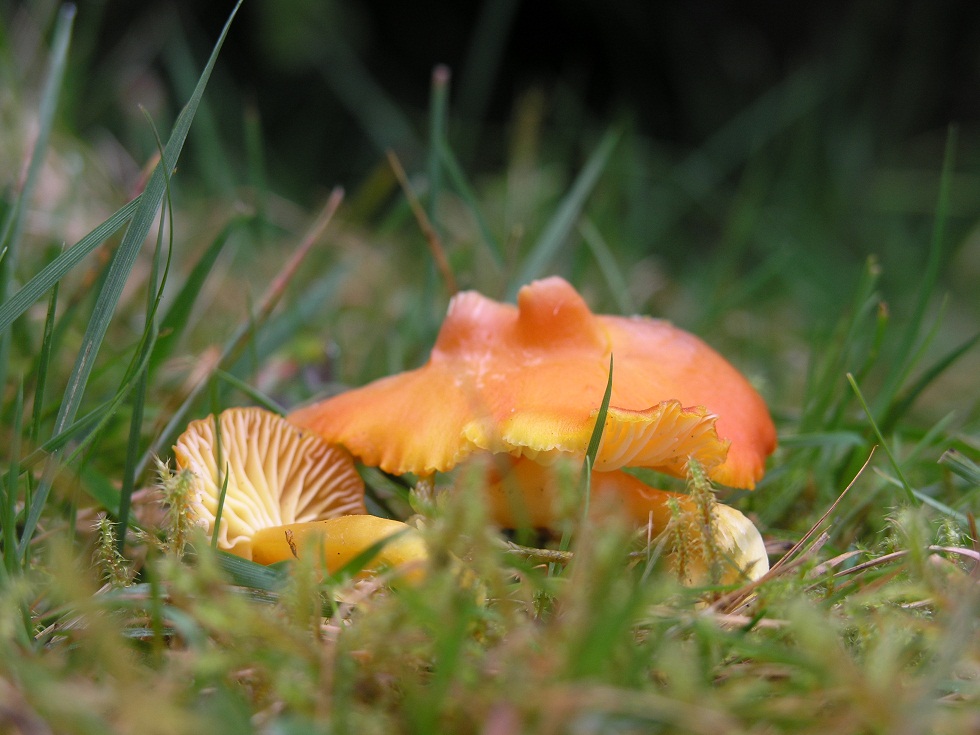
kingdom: Fungi
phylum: Basidiomycota
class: Agaricomycetes
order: Agaricales
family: Hygrophoraceae
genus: Hygrocybe
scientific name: Hygrocybe reidii
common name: honning-vokshat
